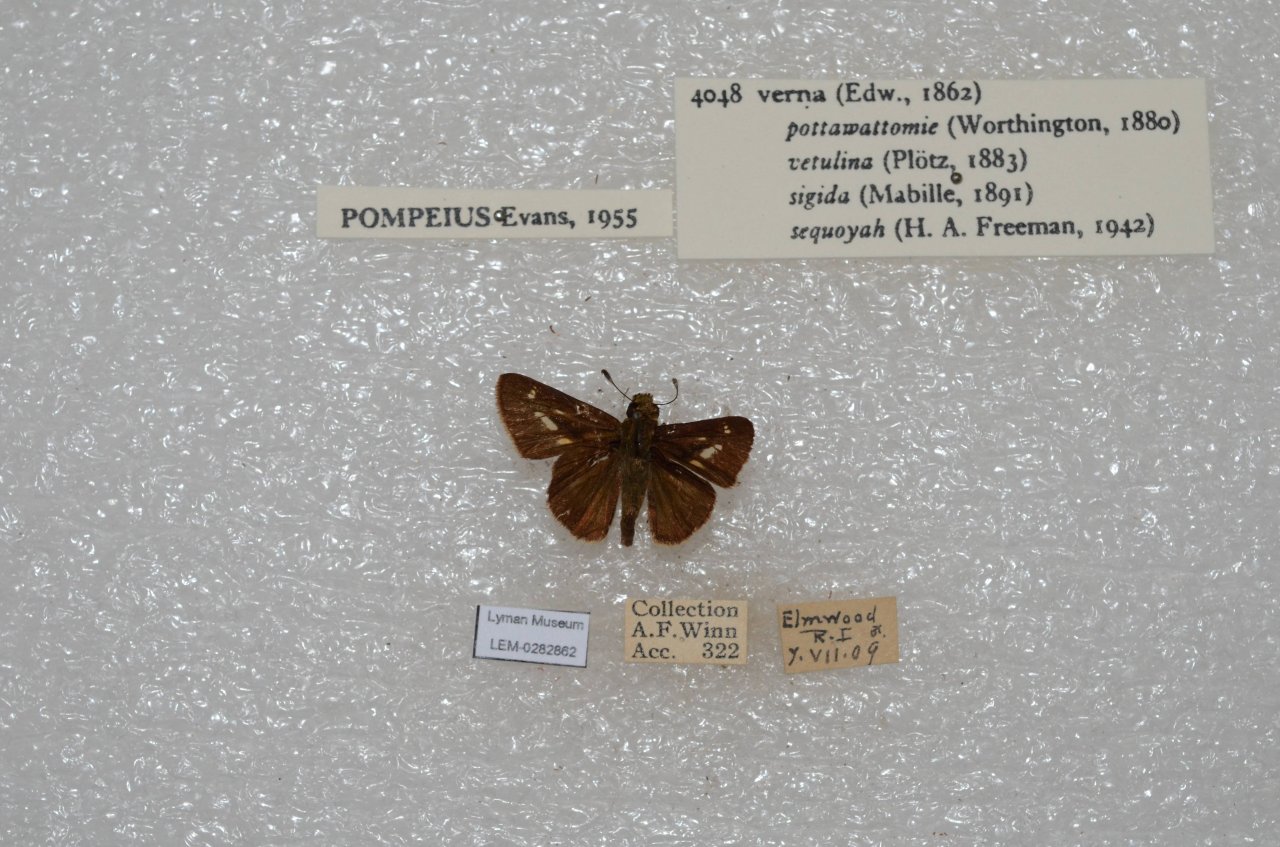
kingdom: Animalia
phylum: Arthropoda
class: Insecta
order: Lepidoptera
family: Hesperiidae
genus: Vernia
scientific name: Vernia verna
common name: Little Glassywing
